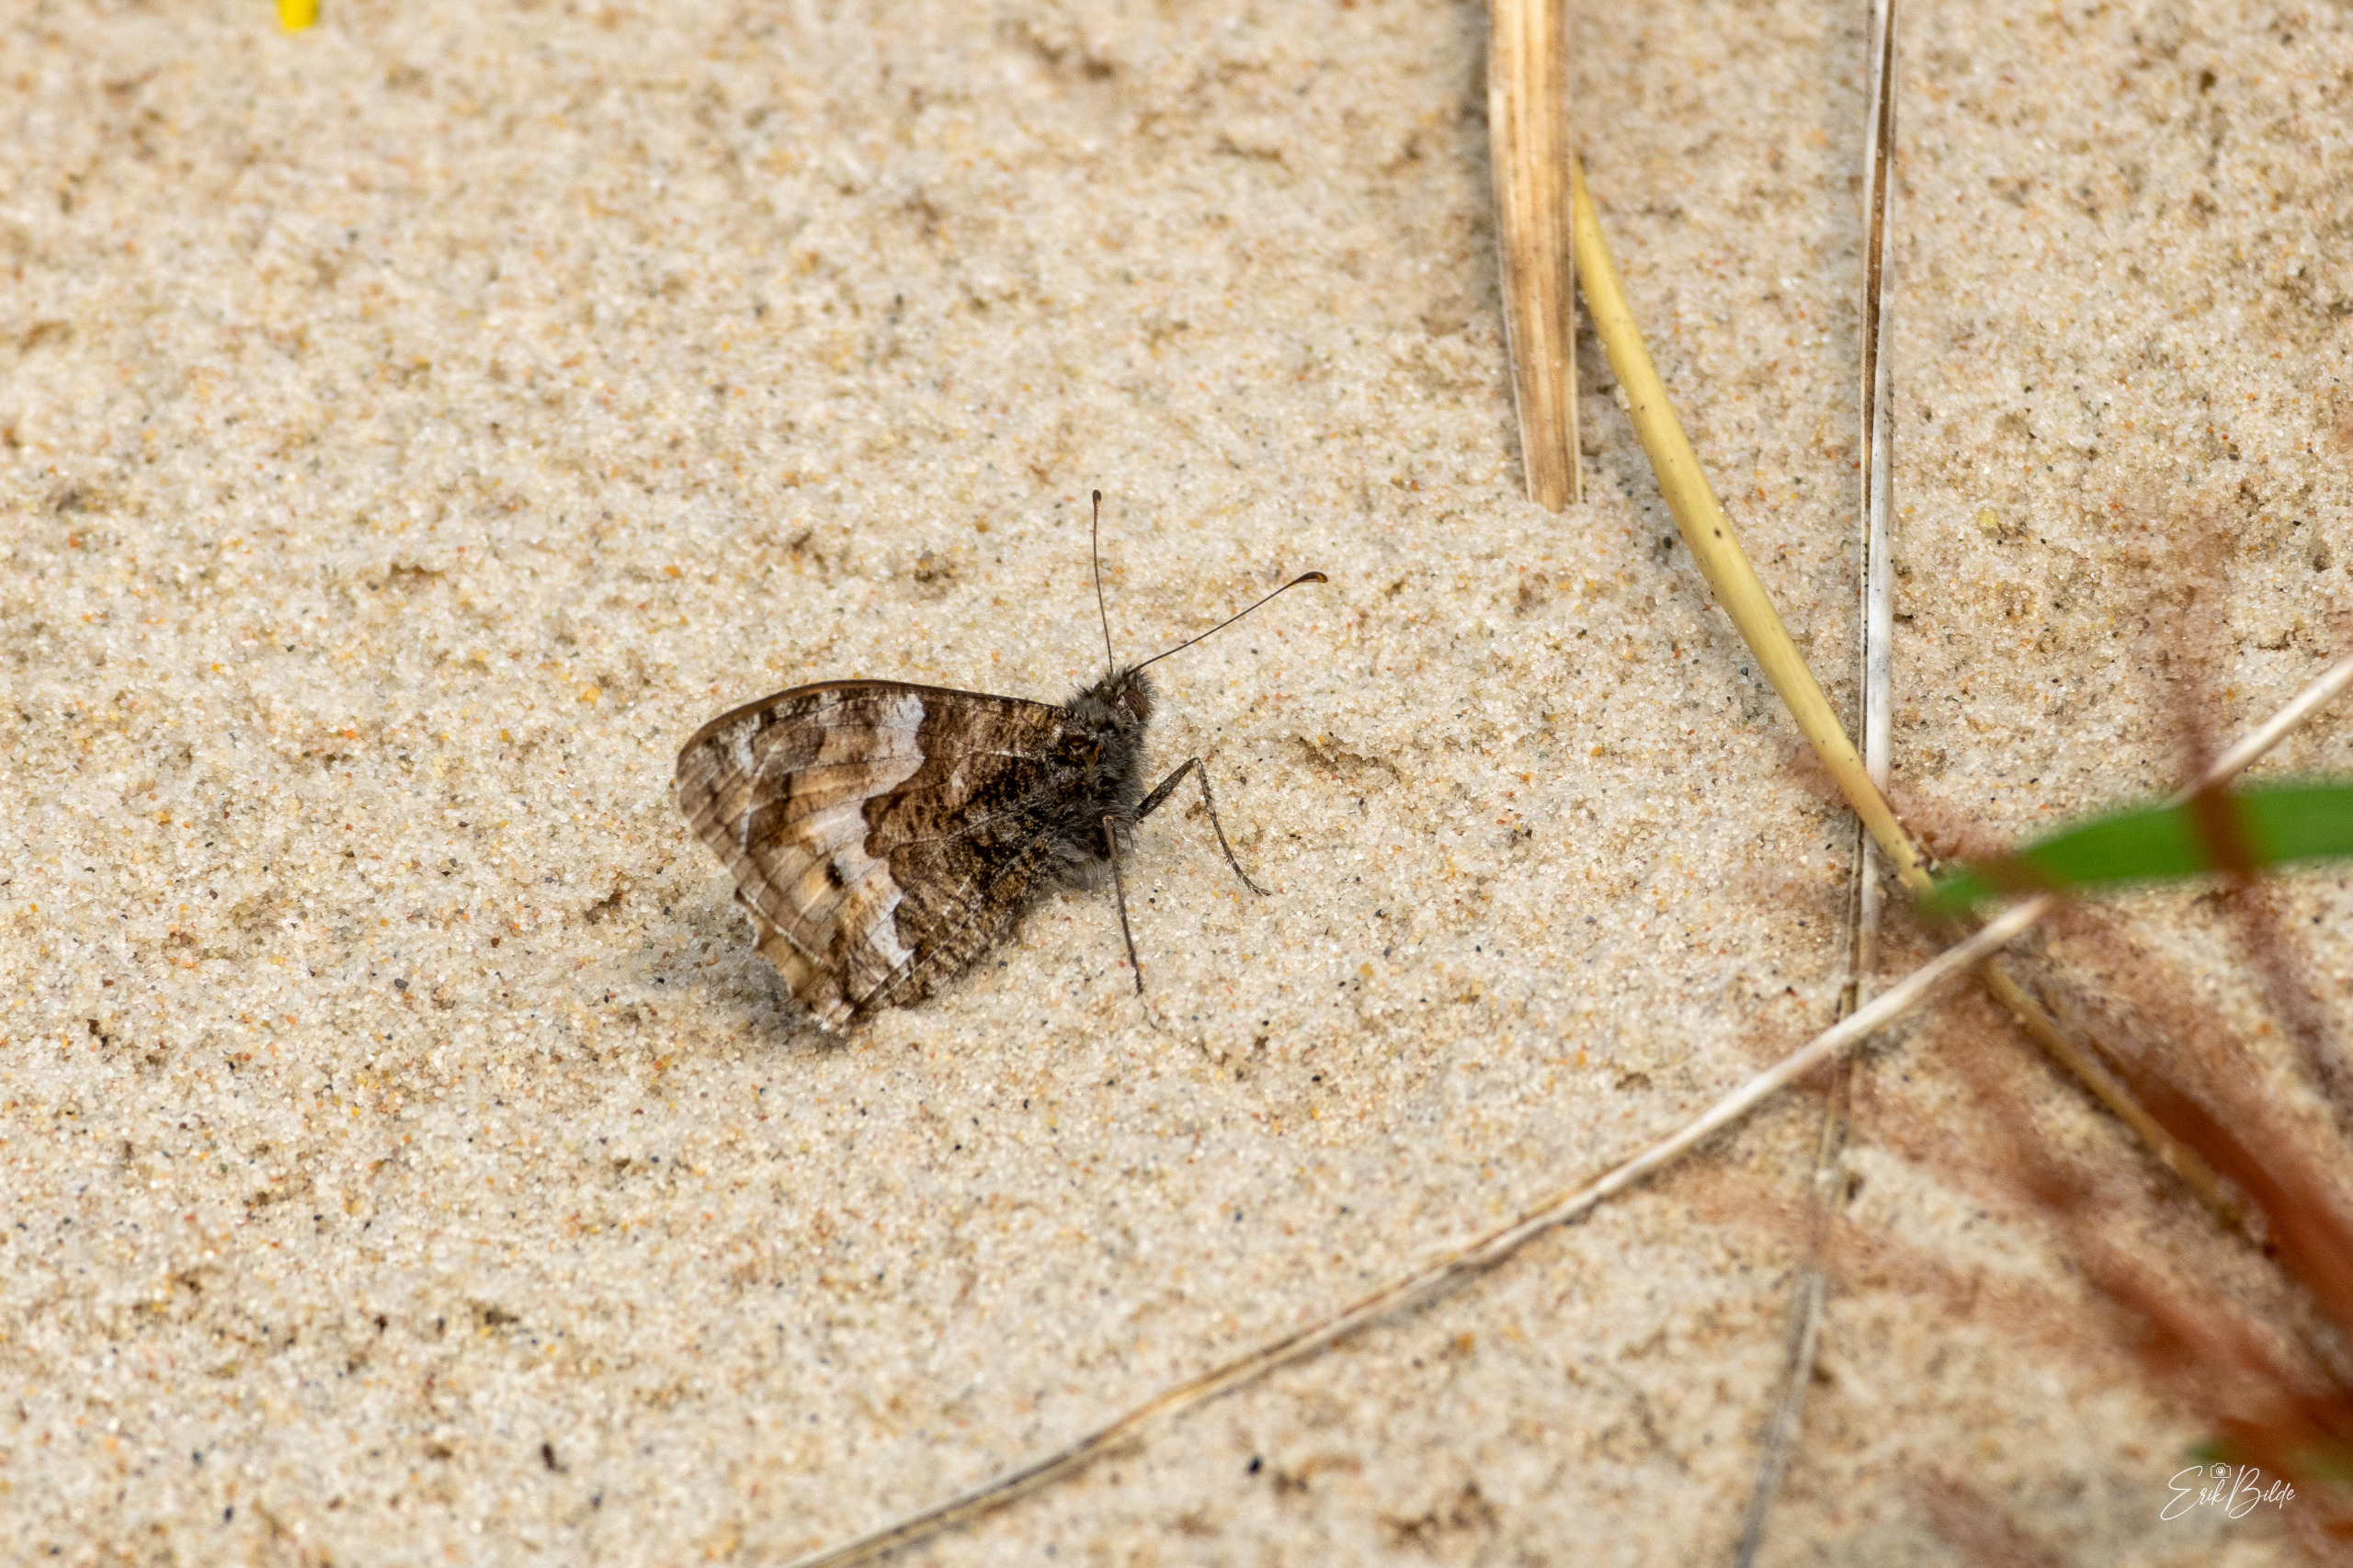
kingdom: Animalia
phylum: Arthropoda
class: Insecta
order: Lepidoptera
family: Nymphalidae
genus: Hipparchia
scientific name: Hipparchia semele
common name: Sandrandøje
